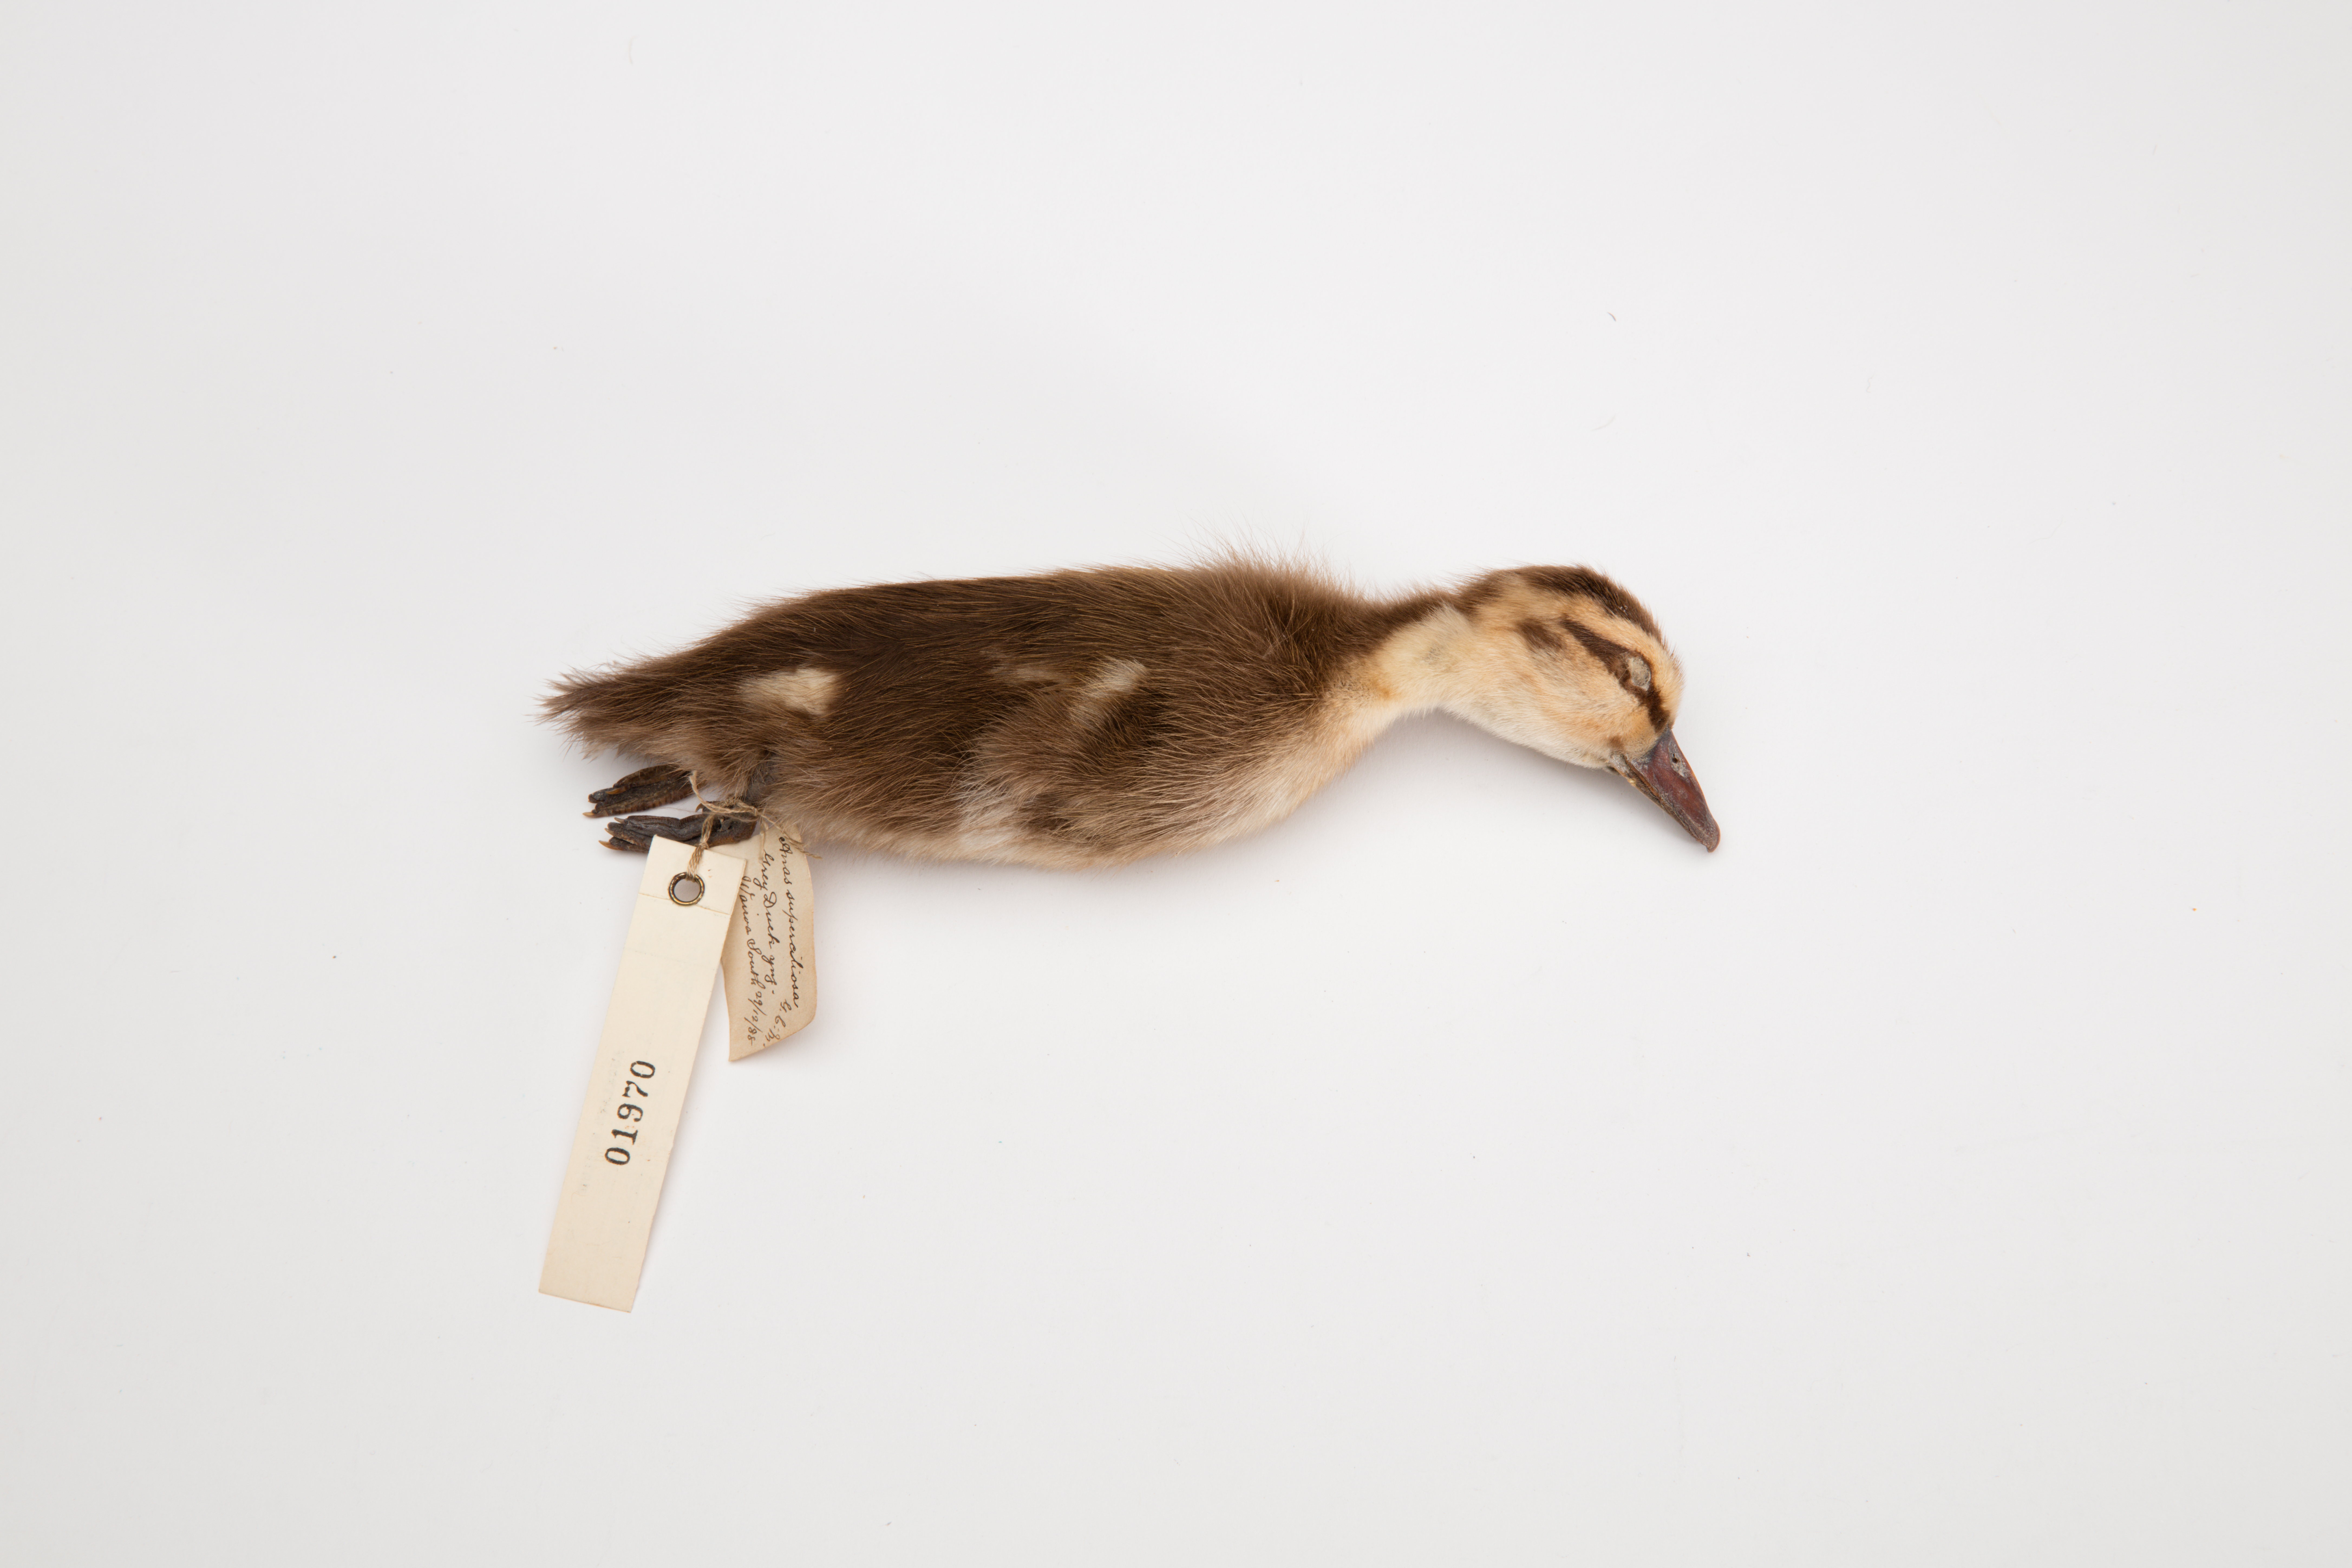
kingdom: Animalia
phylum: Chordata
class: Aves
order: Anseriformes
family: Anatidae
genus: Anas
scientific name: Anas superciliosa
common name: Pacific black duck
